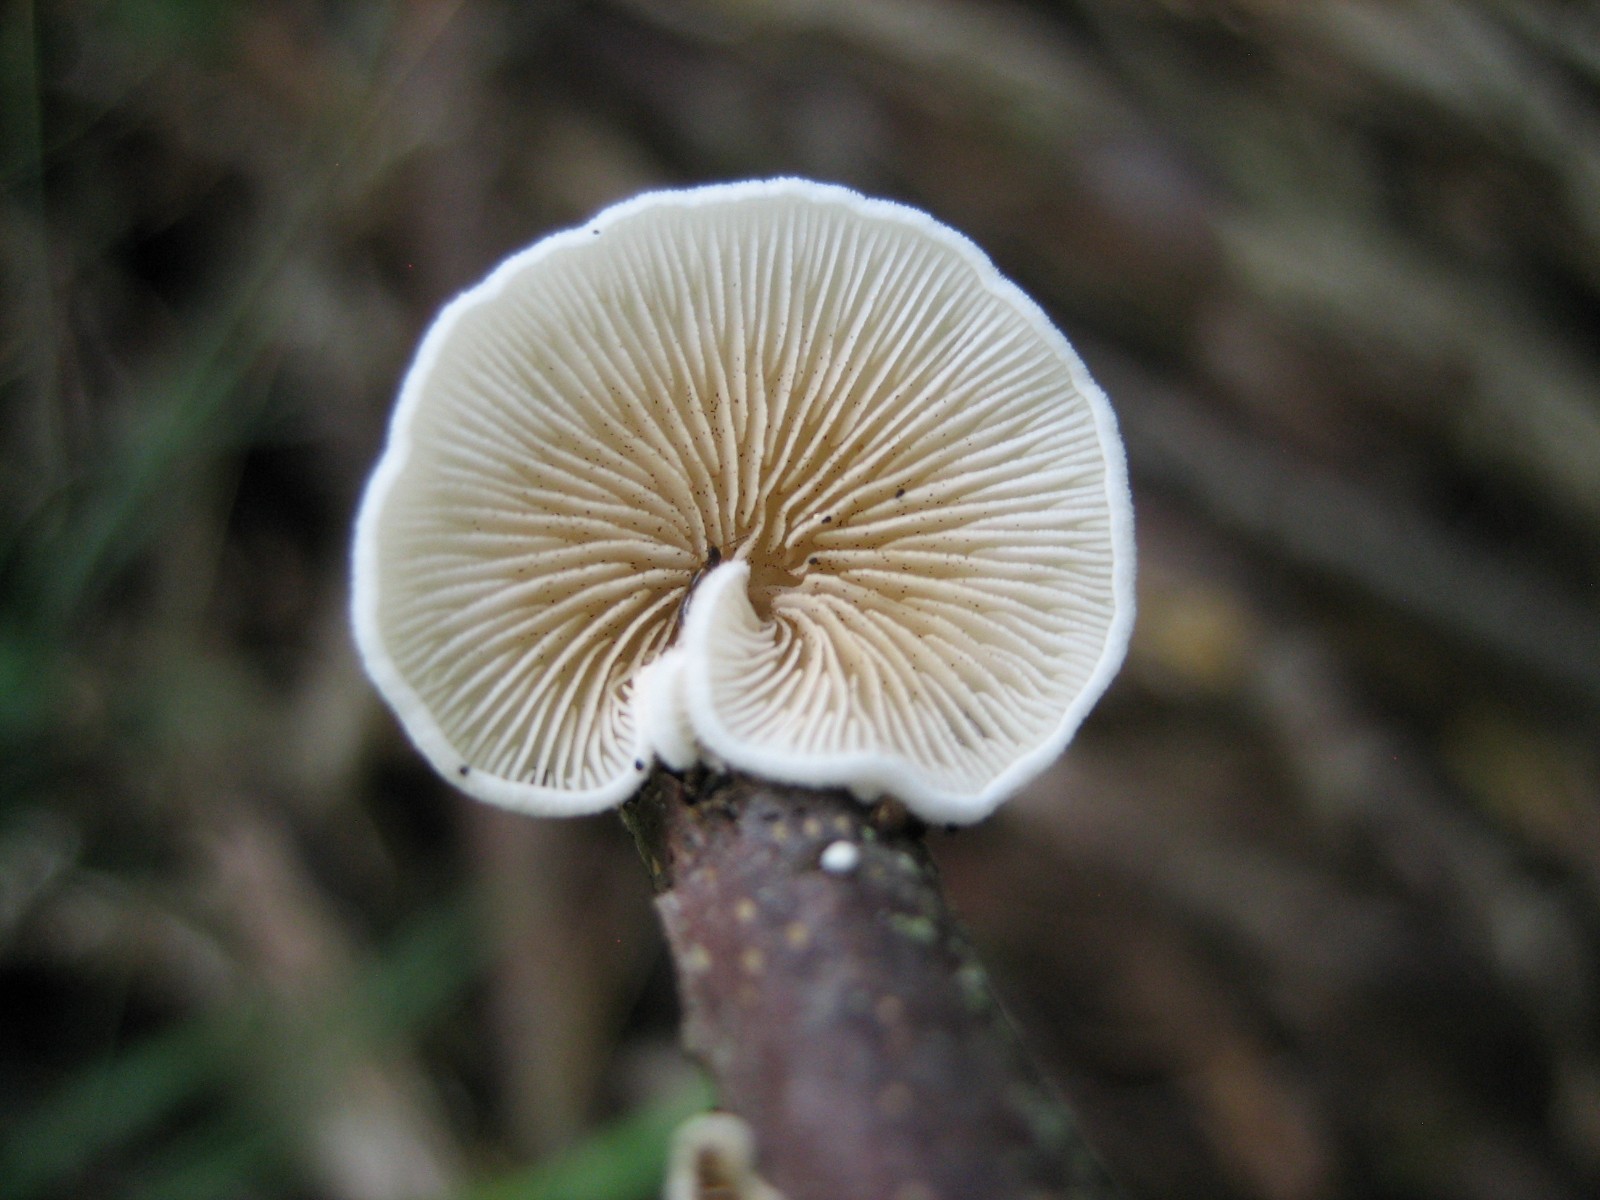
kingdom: Fungi
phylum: Basidiomycota
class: Agaricomycetes
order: Agaricales
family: Crepidotaceae
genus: Crepidotus
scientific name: Crepidotus
